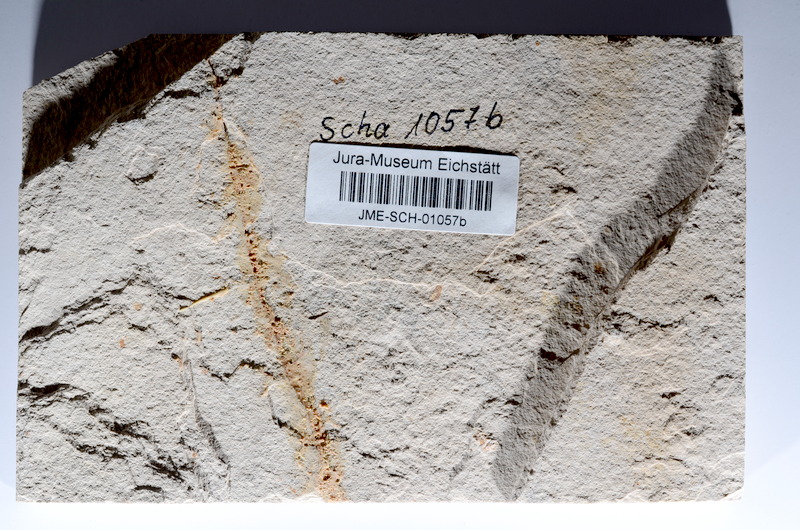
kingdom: Animalia
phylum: Chordata
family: Ascalaboidae
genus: Tharsis
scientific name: Tharsis dubius
